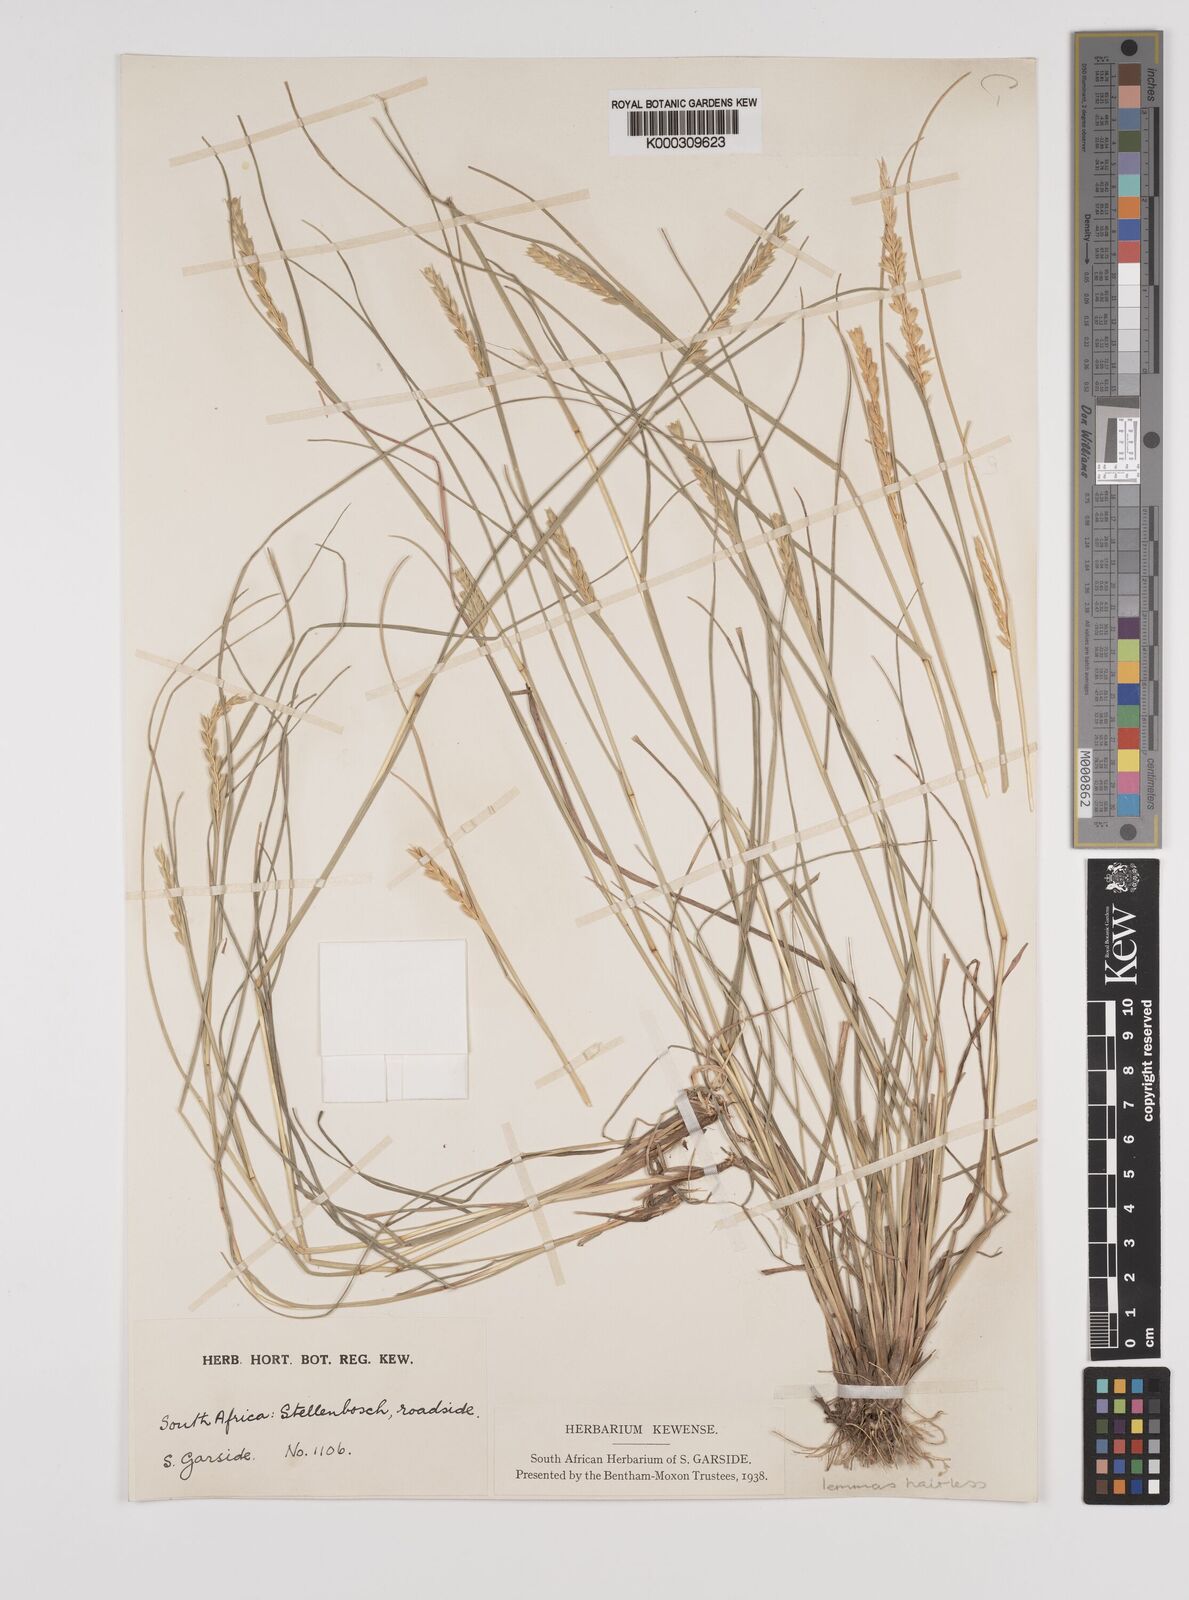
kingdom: Plantae
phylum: Tracheophyta
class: Liliopsida
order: Poales
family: Poaceae
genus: Tribolium
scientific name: Tribolium uniolae
